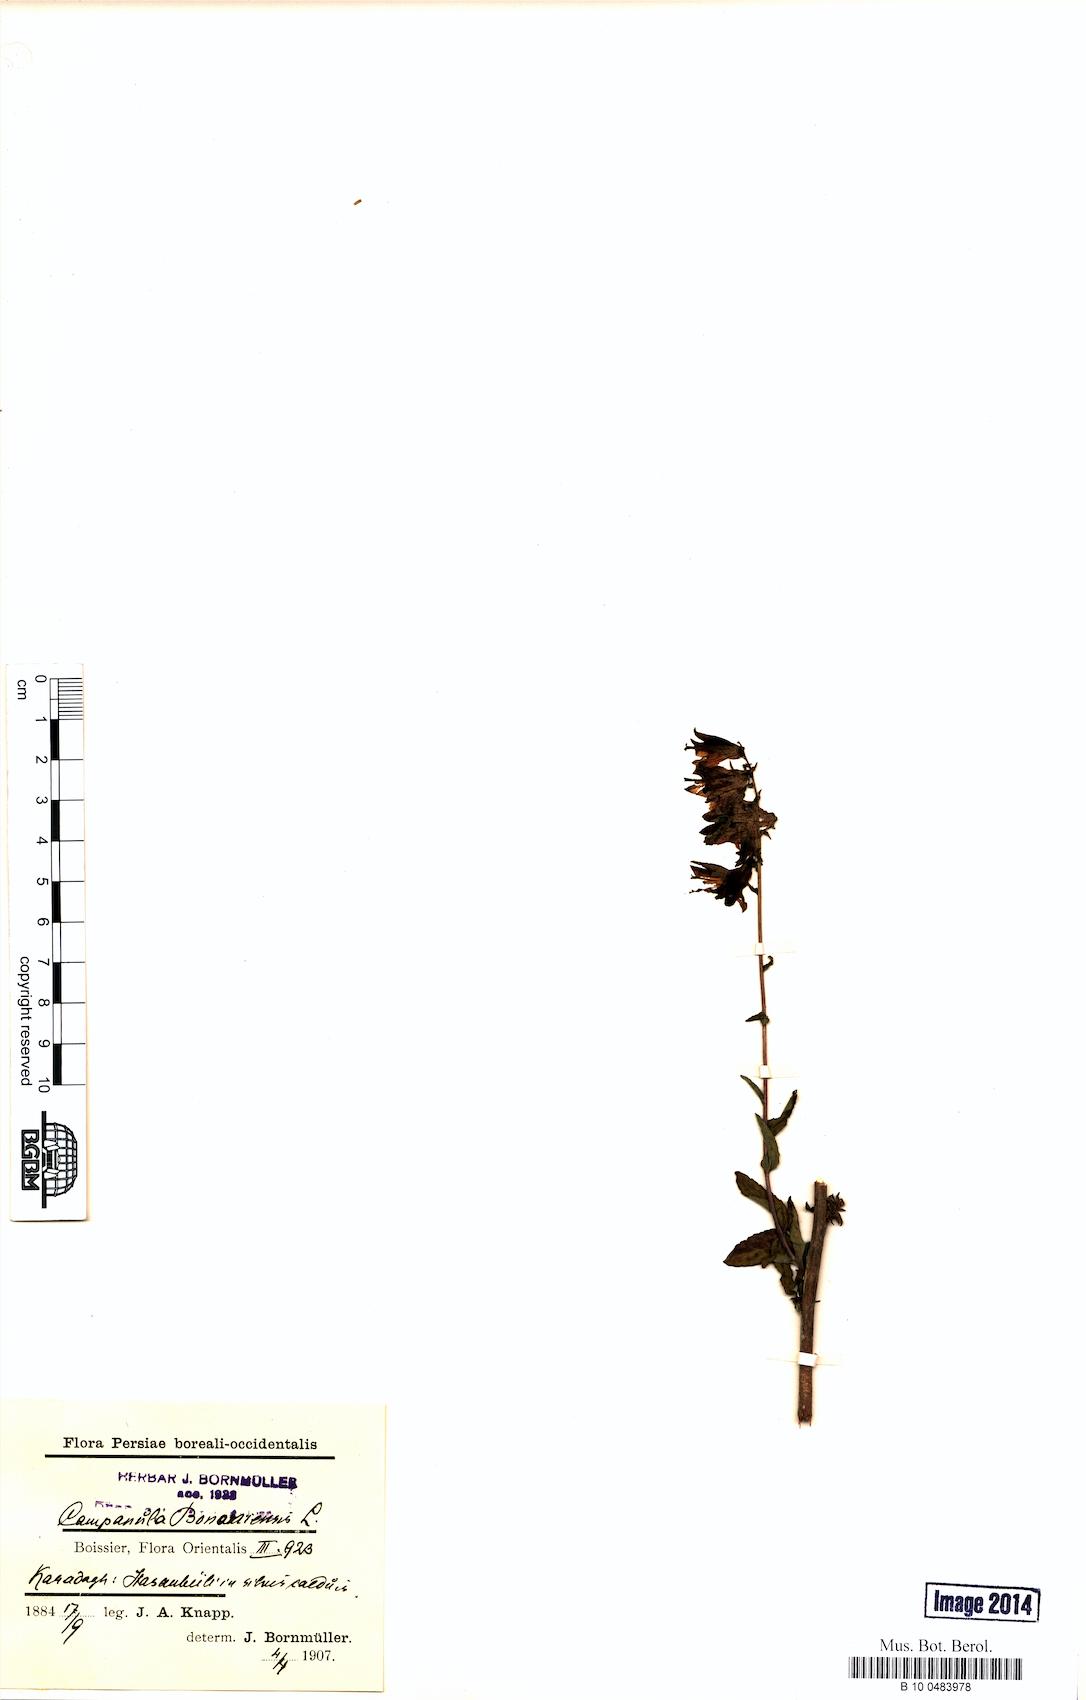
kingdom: Plantae
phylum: Tracheophyta
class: Magnoliopsida
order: Asterales
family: Campanulaceae
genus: Campanula
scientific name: Campanula bononiensis
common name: Pale bellflower
